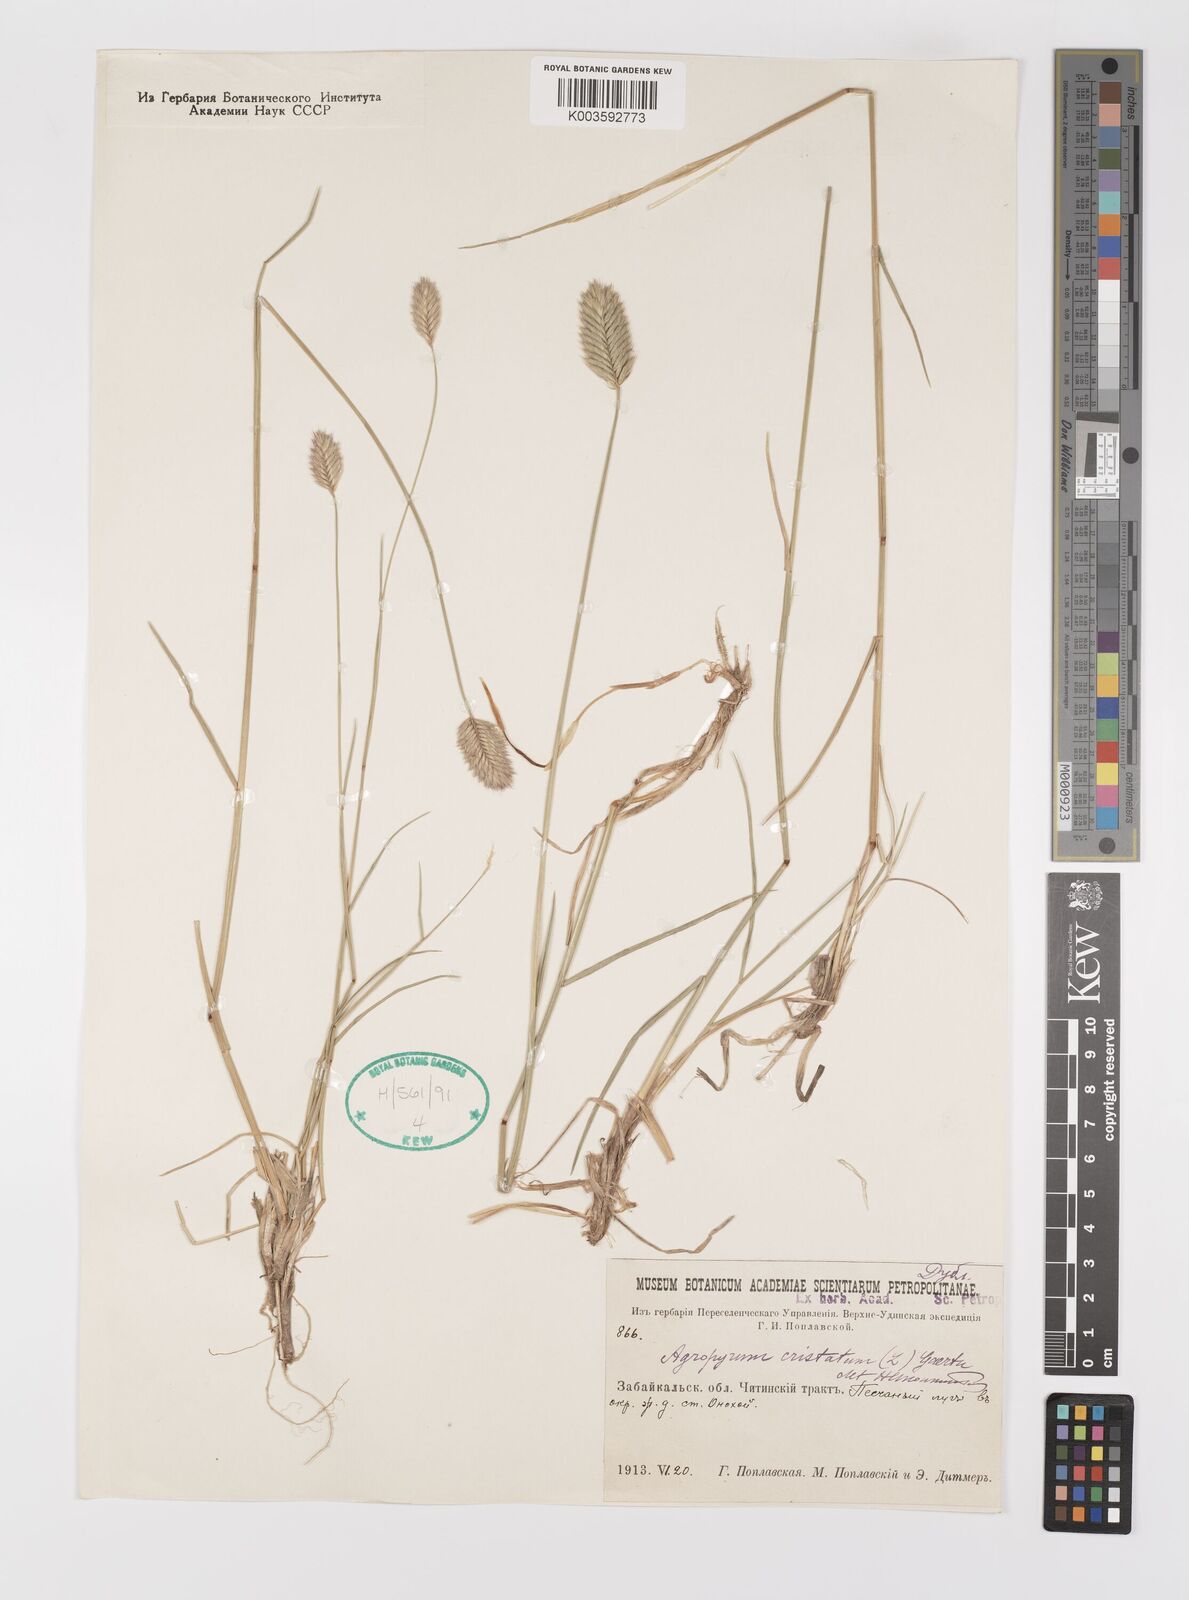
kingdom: Plantae
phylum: Tracheophyta
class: Liliopsida
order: Poales
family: Poaceae
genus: Agropyron
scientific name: Agropyron cristatum
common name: Crested wheatgrass
